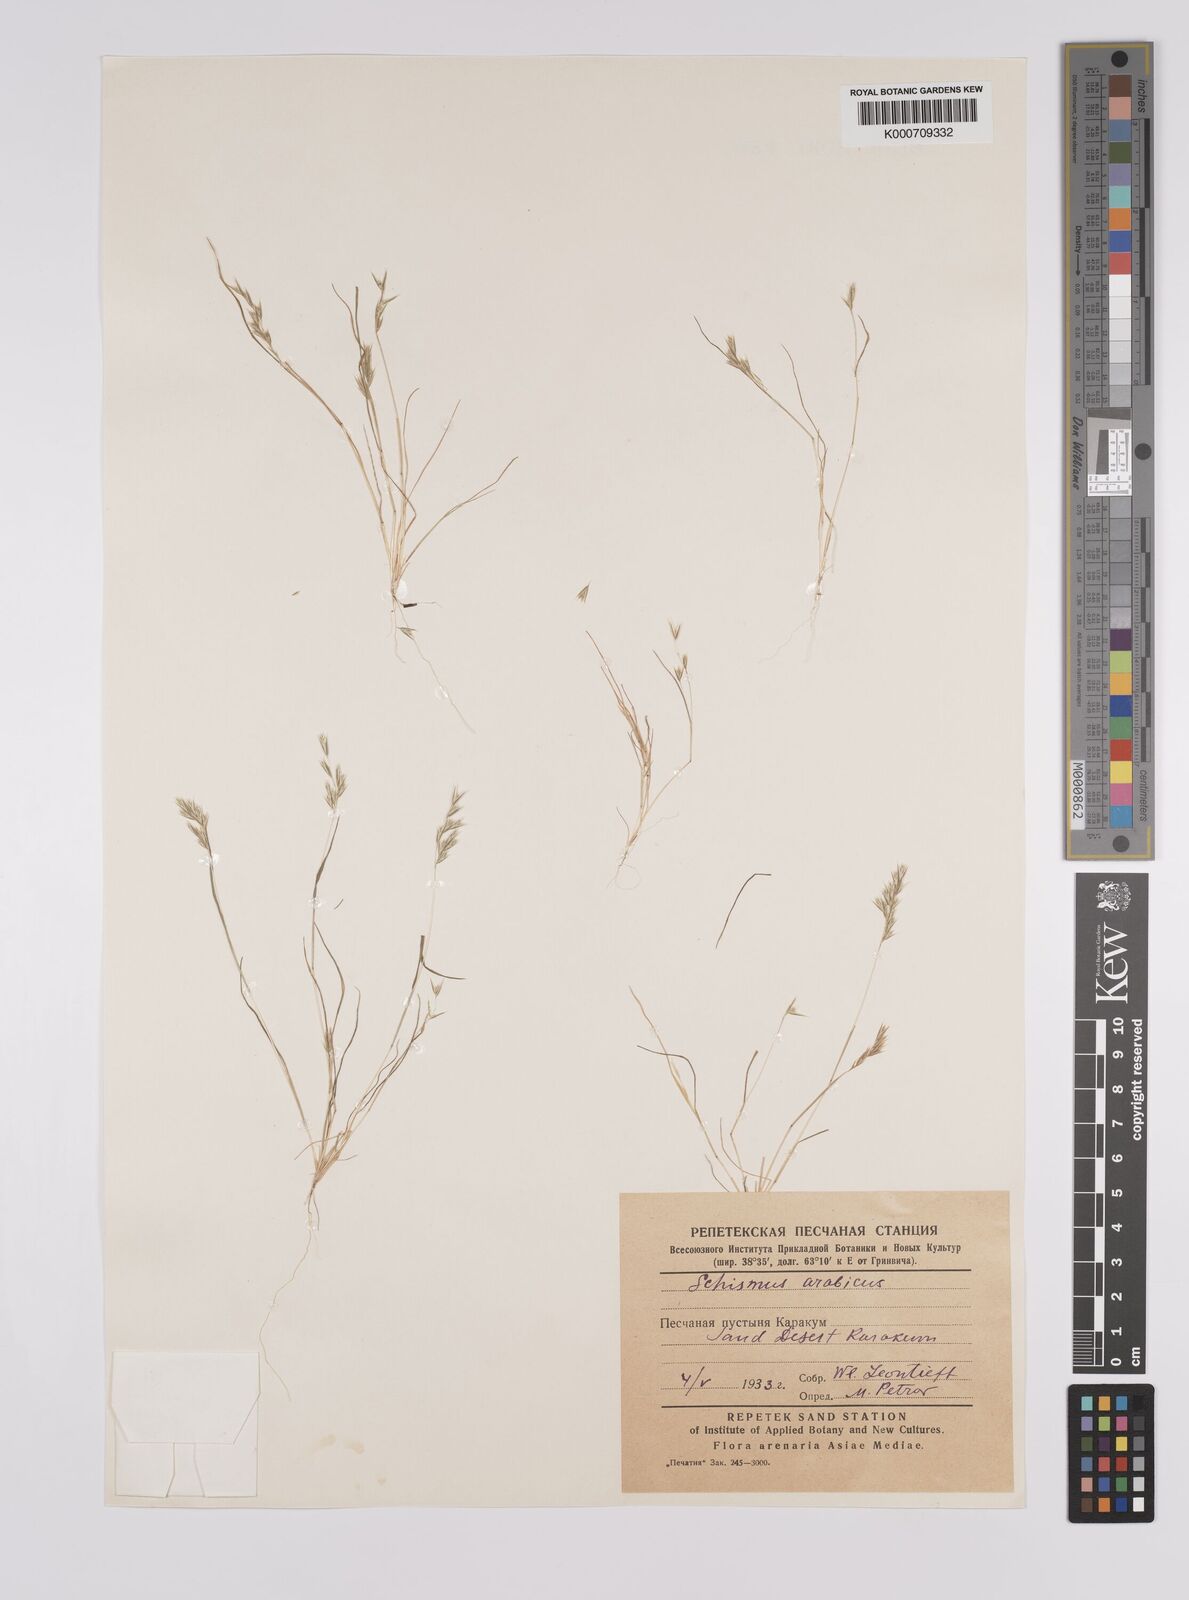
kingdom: Plantae
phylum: Tracheophyta
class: Liliopsida
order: Poales
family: Poaceae
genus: Schismus
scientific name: Schismus arabicus
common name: Arabian schismus
